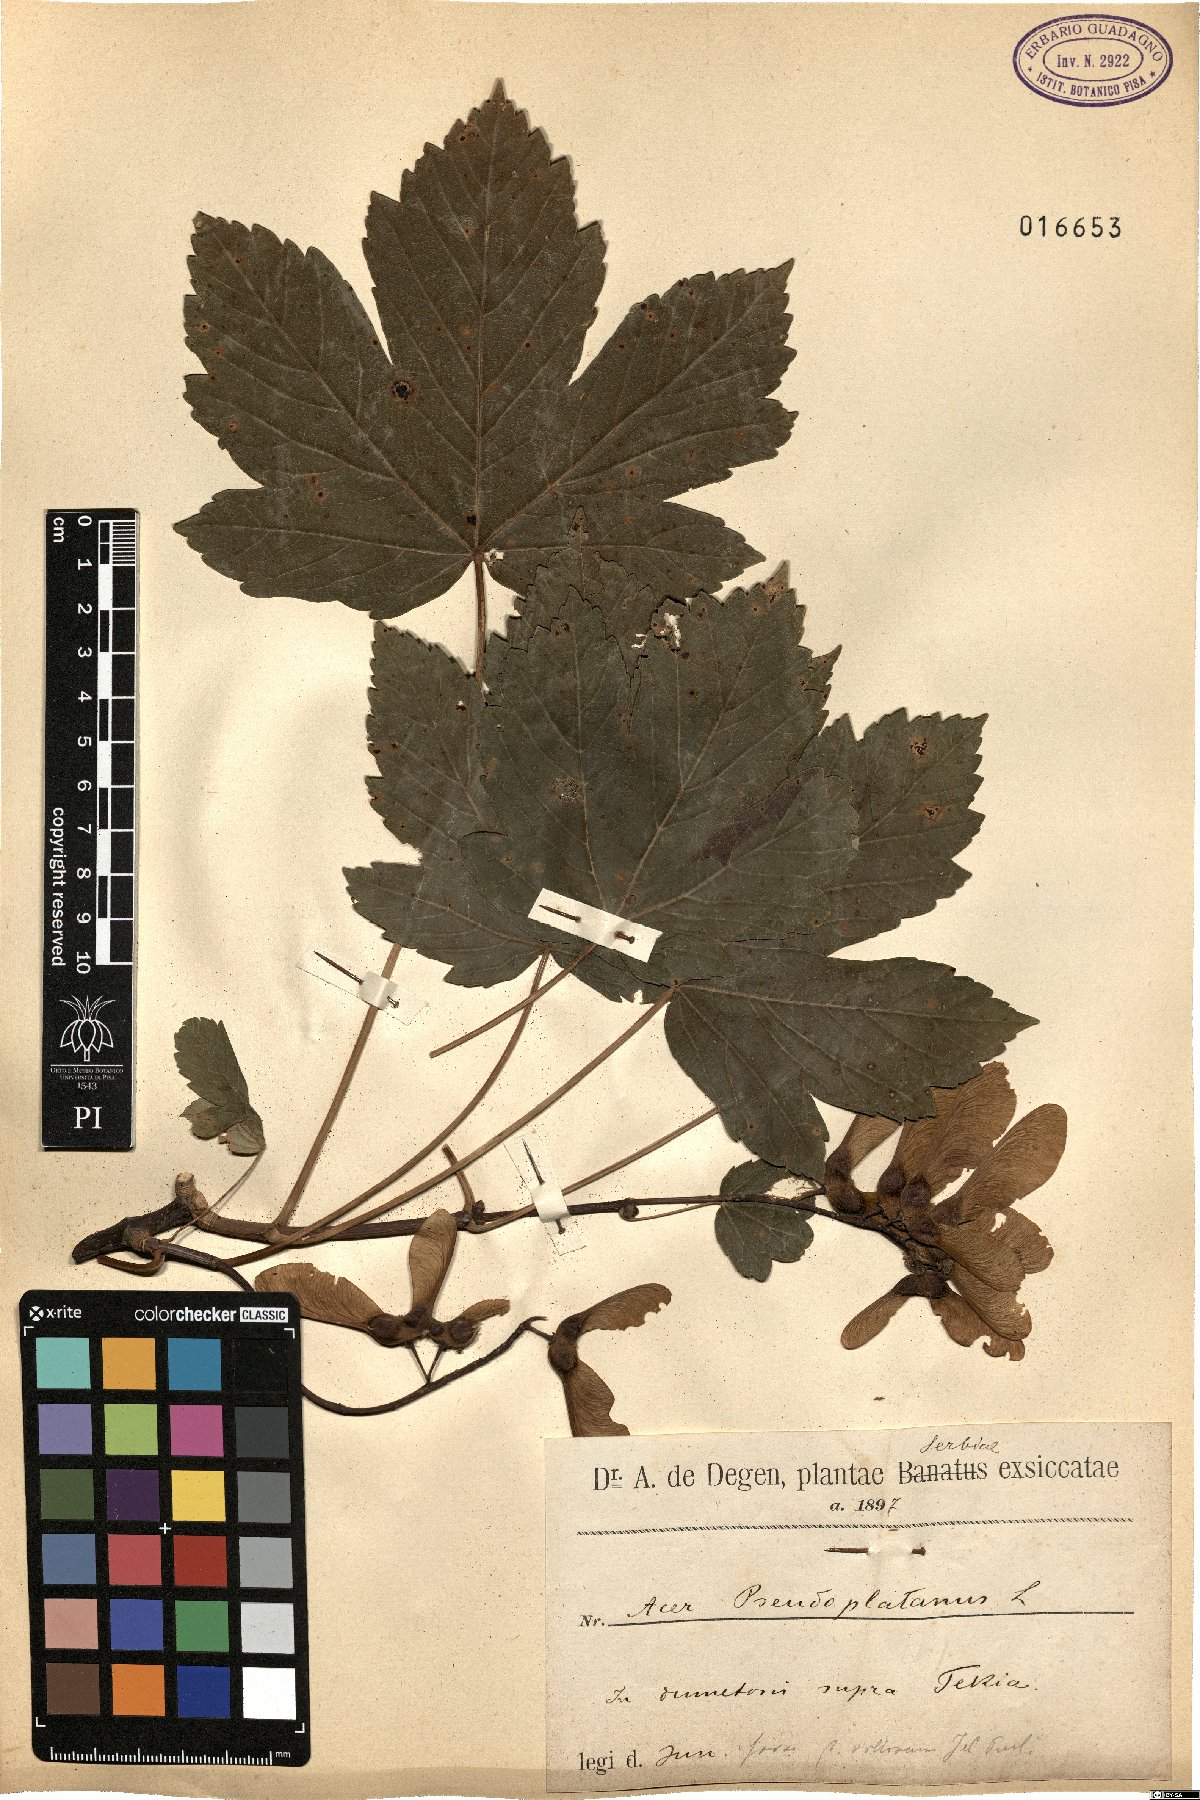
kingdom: Plantae
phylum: Tracheophyta
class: Magnoliopsida
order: Sapindales
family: Sapindaceae
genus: Acer
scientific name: Acer pseudoplatanus
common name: Sycamore
